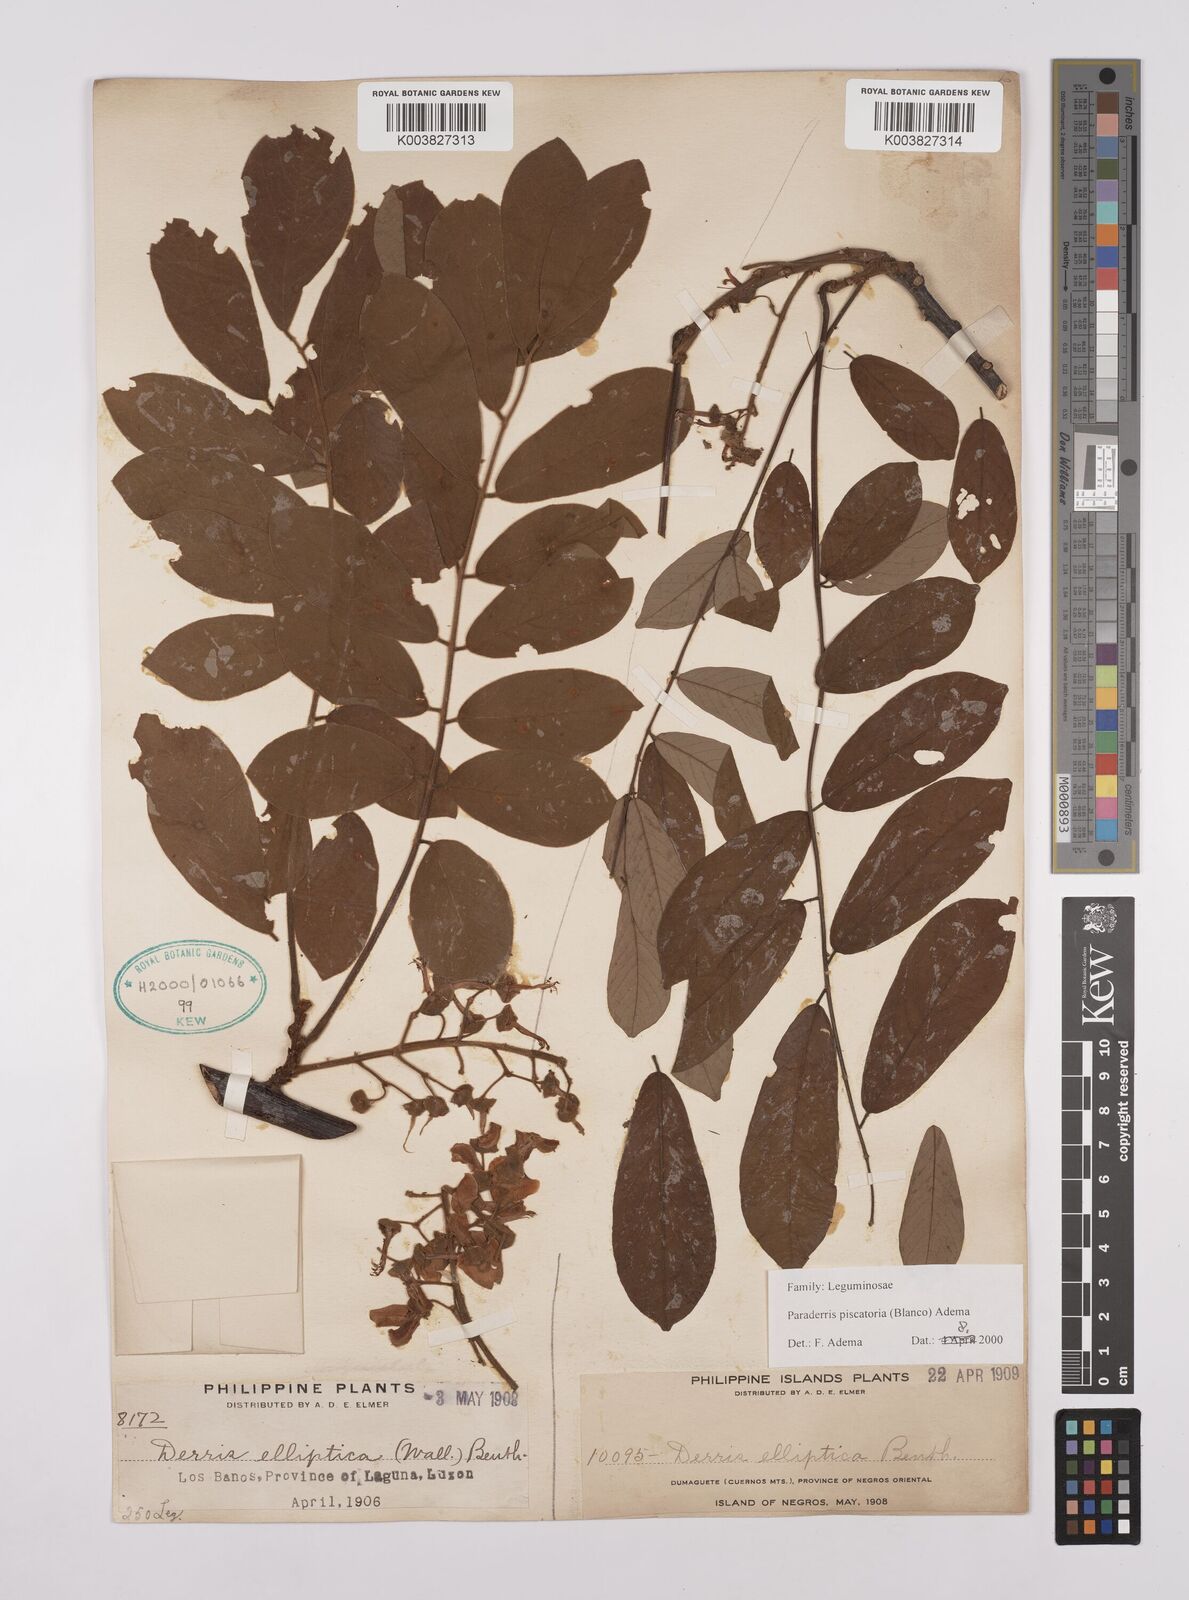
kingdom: Plantae
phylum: Tracheophyta
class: Magnoliopsida
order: Fabales
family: Fabaceae
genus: Derris
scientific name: Derris piscatoria
